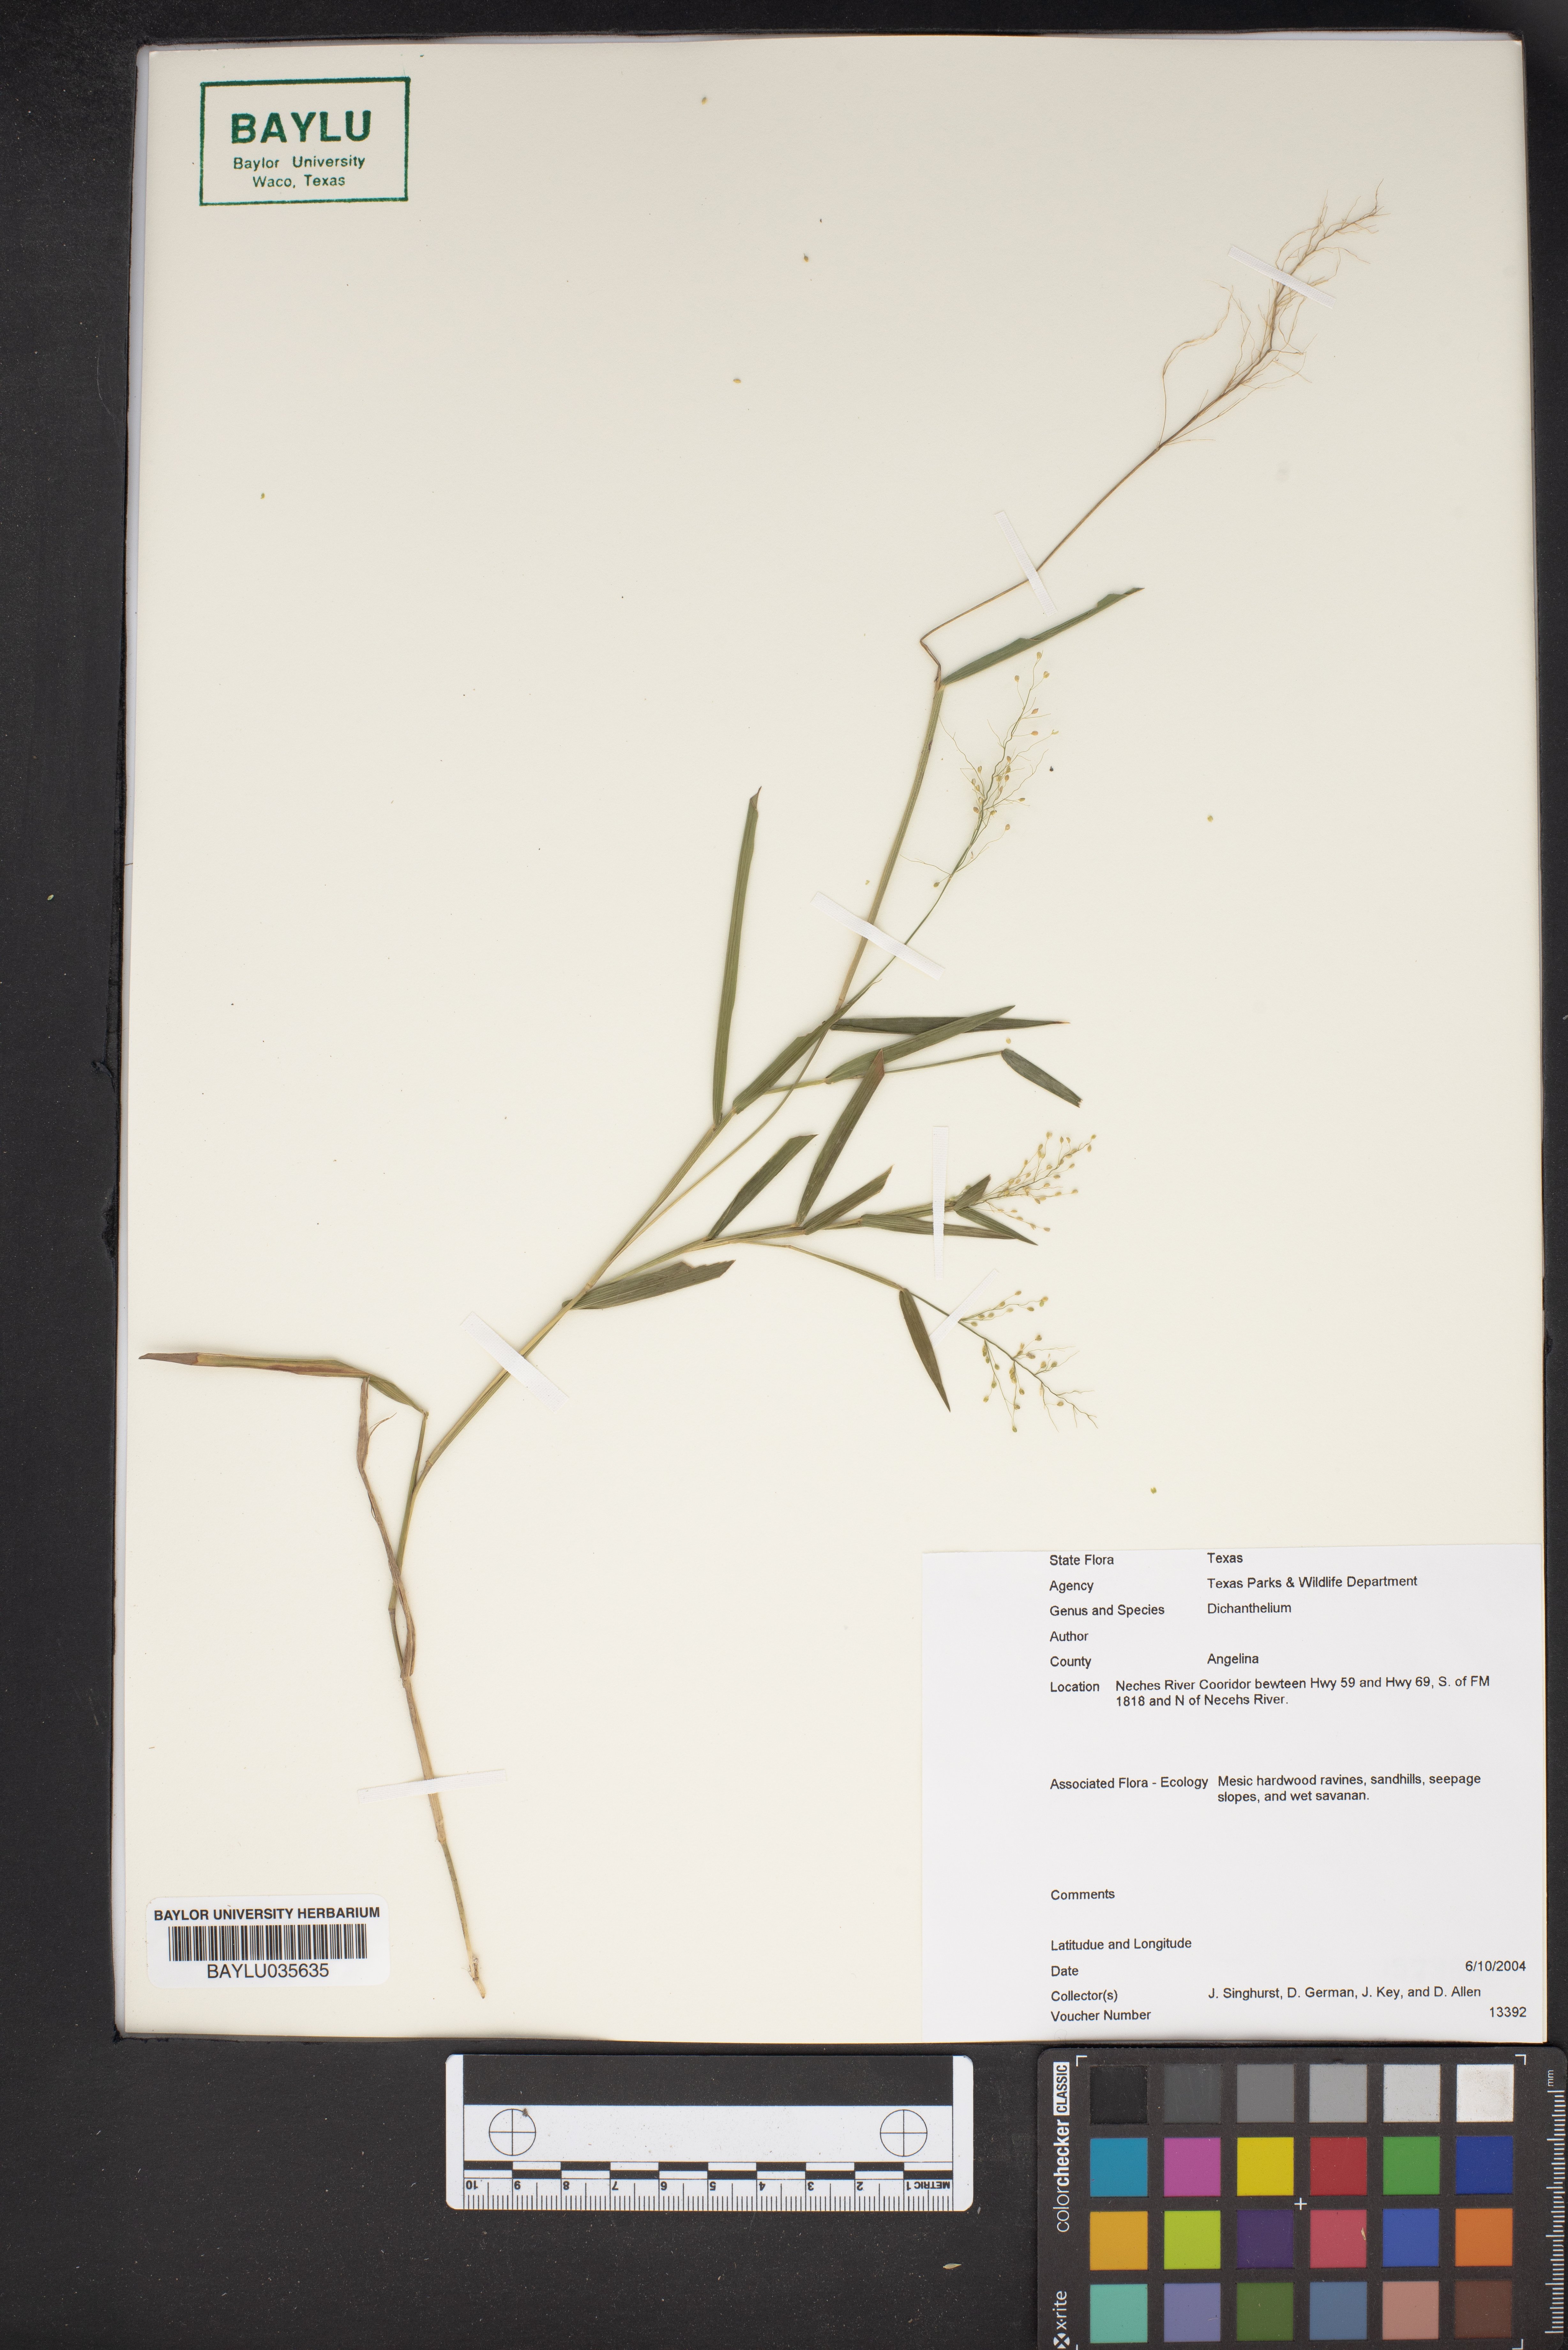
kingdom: Plantae
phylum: Tracheophyta
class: Liliopsida
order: Poales
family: Poaceae
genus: Dichanthelium
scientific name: Dichanthelium
